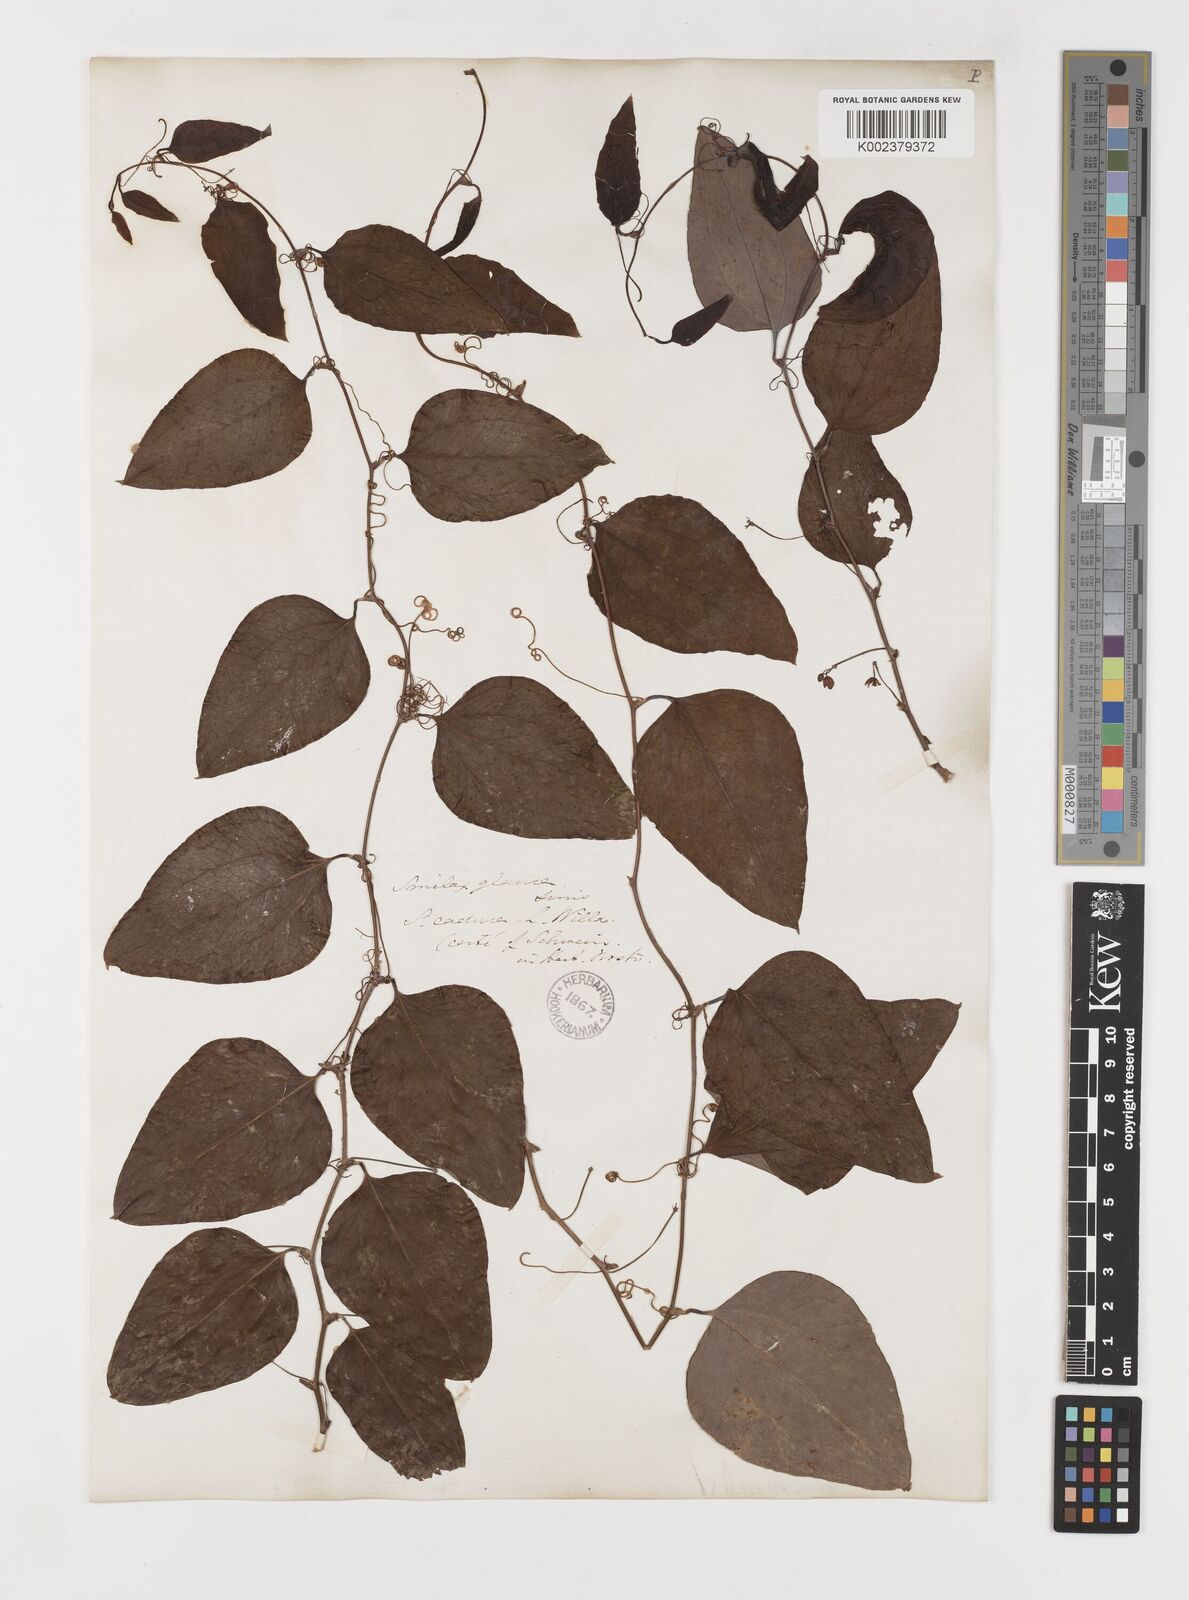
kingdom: Plantae
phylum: Tracheophyta
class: Liliopsida
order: Liliales
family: Smilacaceae
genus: Smilax
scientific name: Smilax glauca
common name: Cat greenbrier
